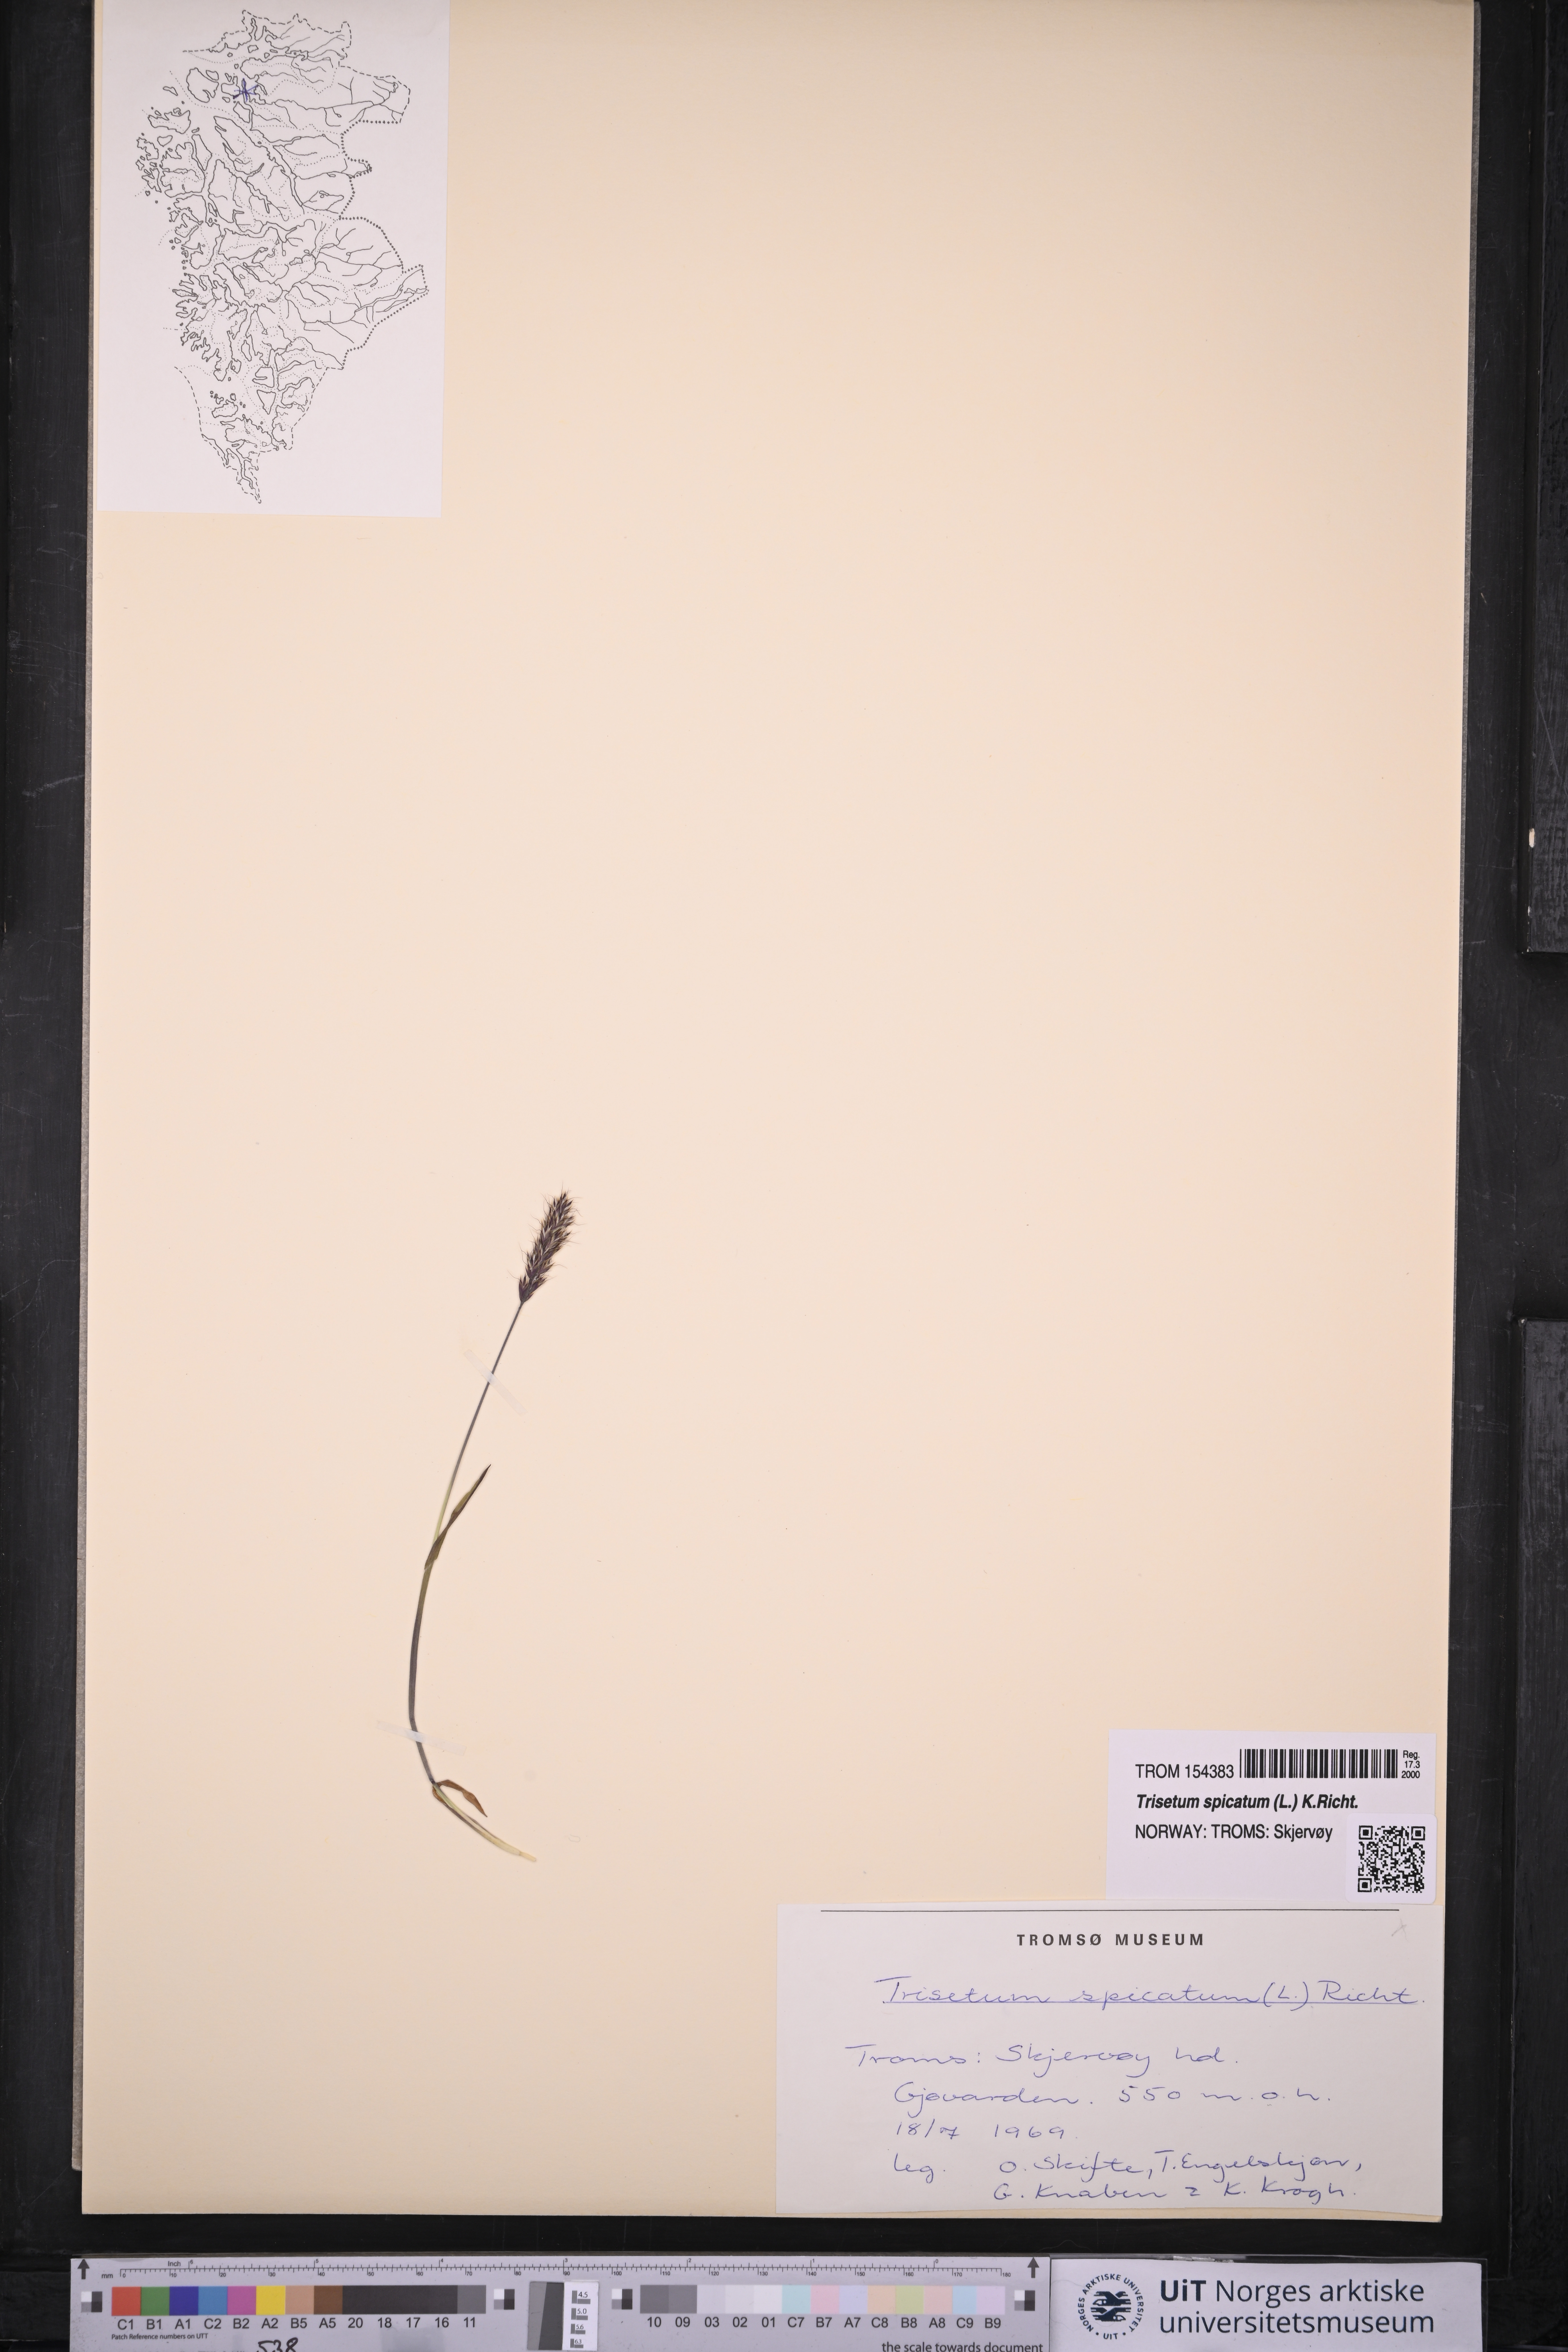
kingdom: Plantae
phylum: Tracheophyta
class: Liliopsida
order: Poales
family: Poaceae
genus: Koeleria
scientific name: Koeleria spicata
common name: Mountain trisetum
